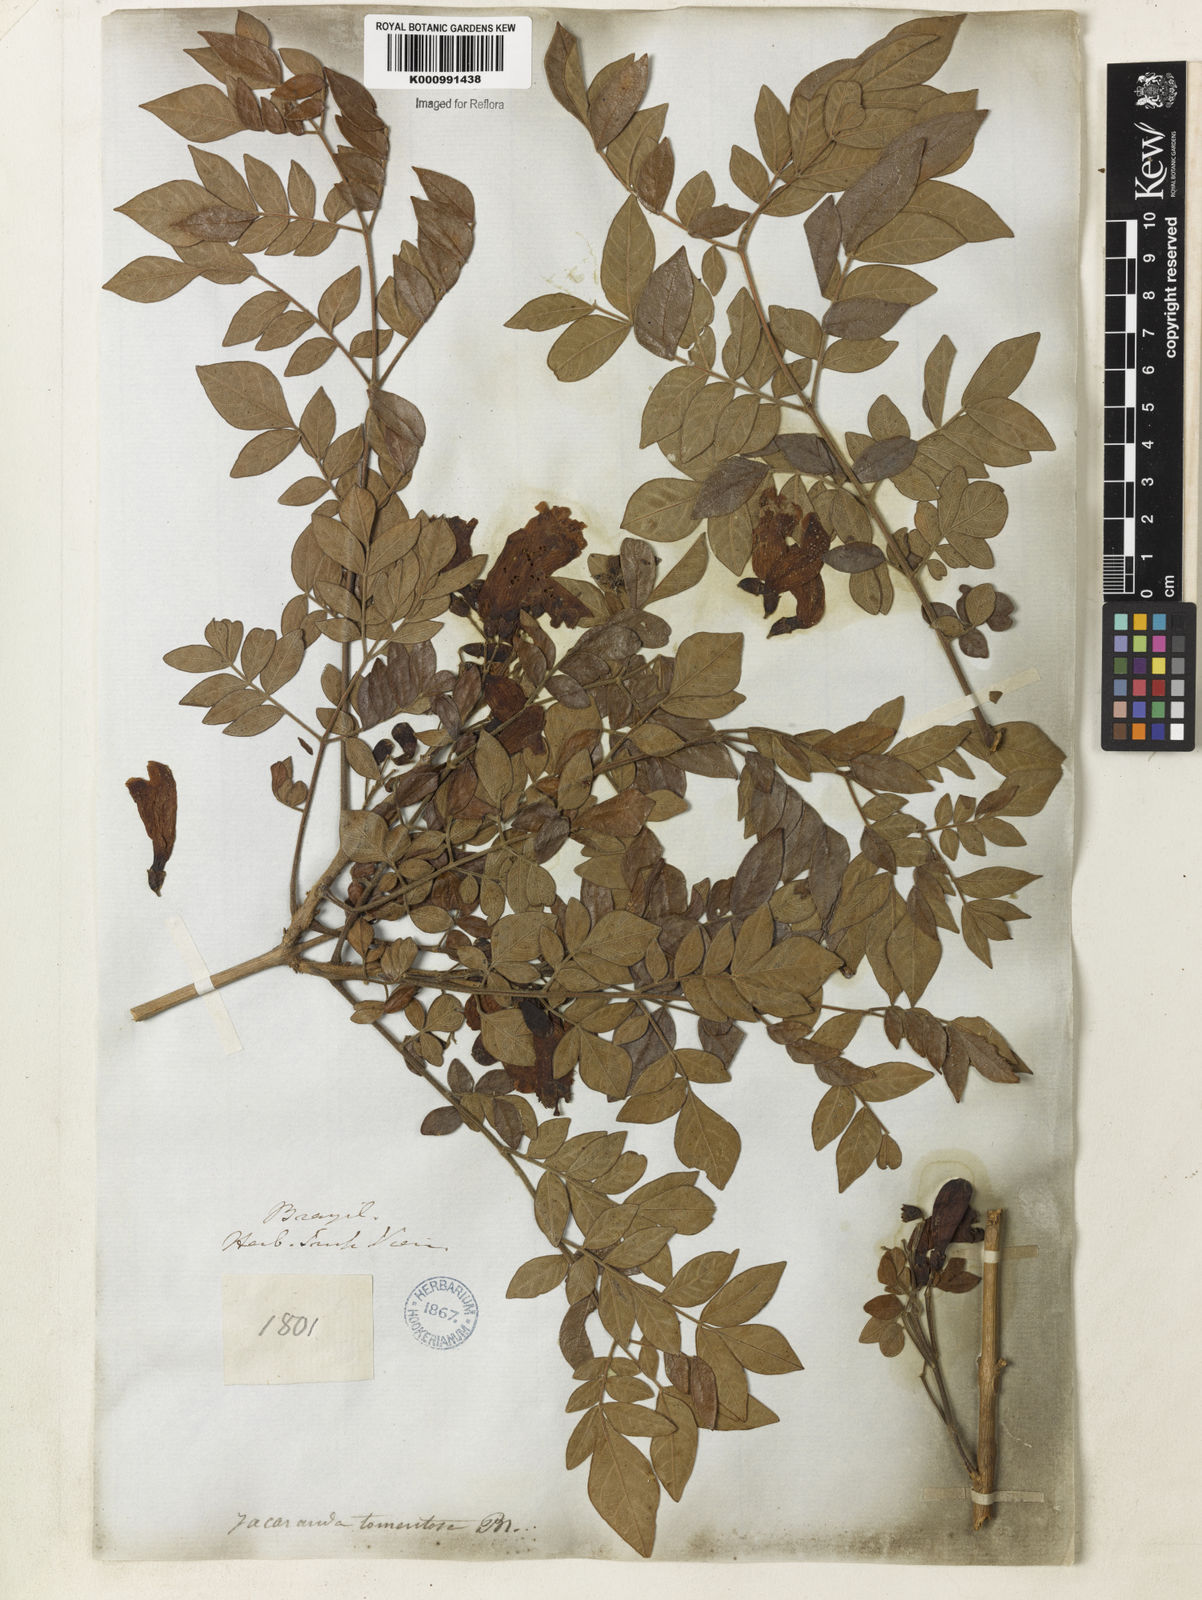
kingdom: Plantae
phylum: Tracheophyta
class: Magnoliopsida
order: Lamiales
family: Bignoniaceae
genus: Jacaranda
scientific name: Jacaranda jasminoides
